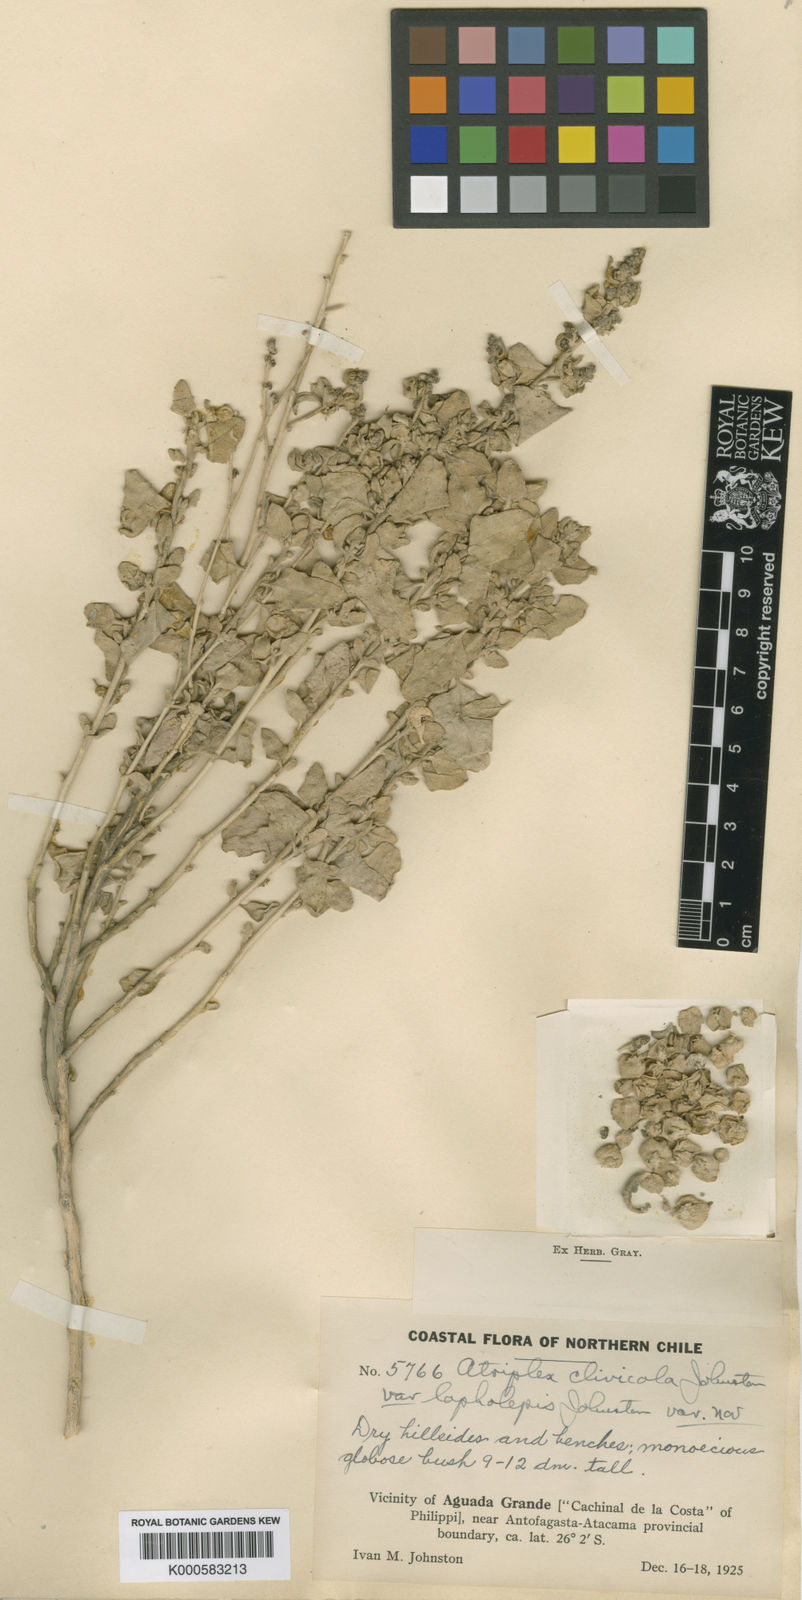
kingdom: Plantae
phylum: Tracheophyta
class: Magnoliopsida
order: Caryophyllales
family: Amaranthaceae
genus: Atriplex
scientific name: Atriplex clivicola
